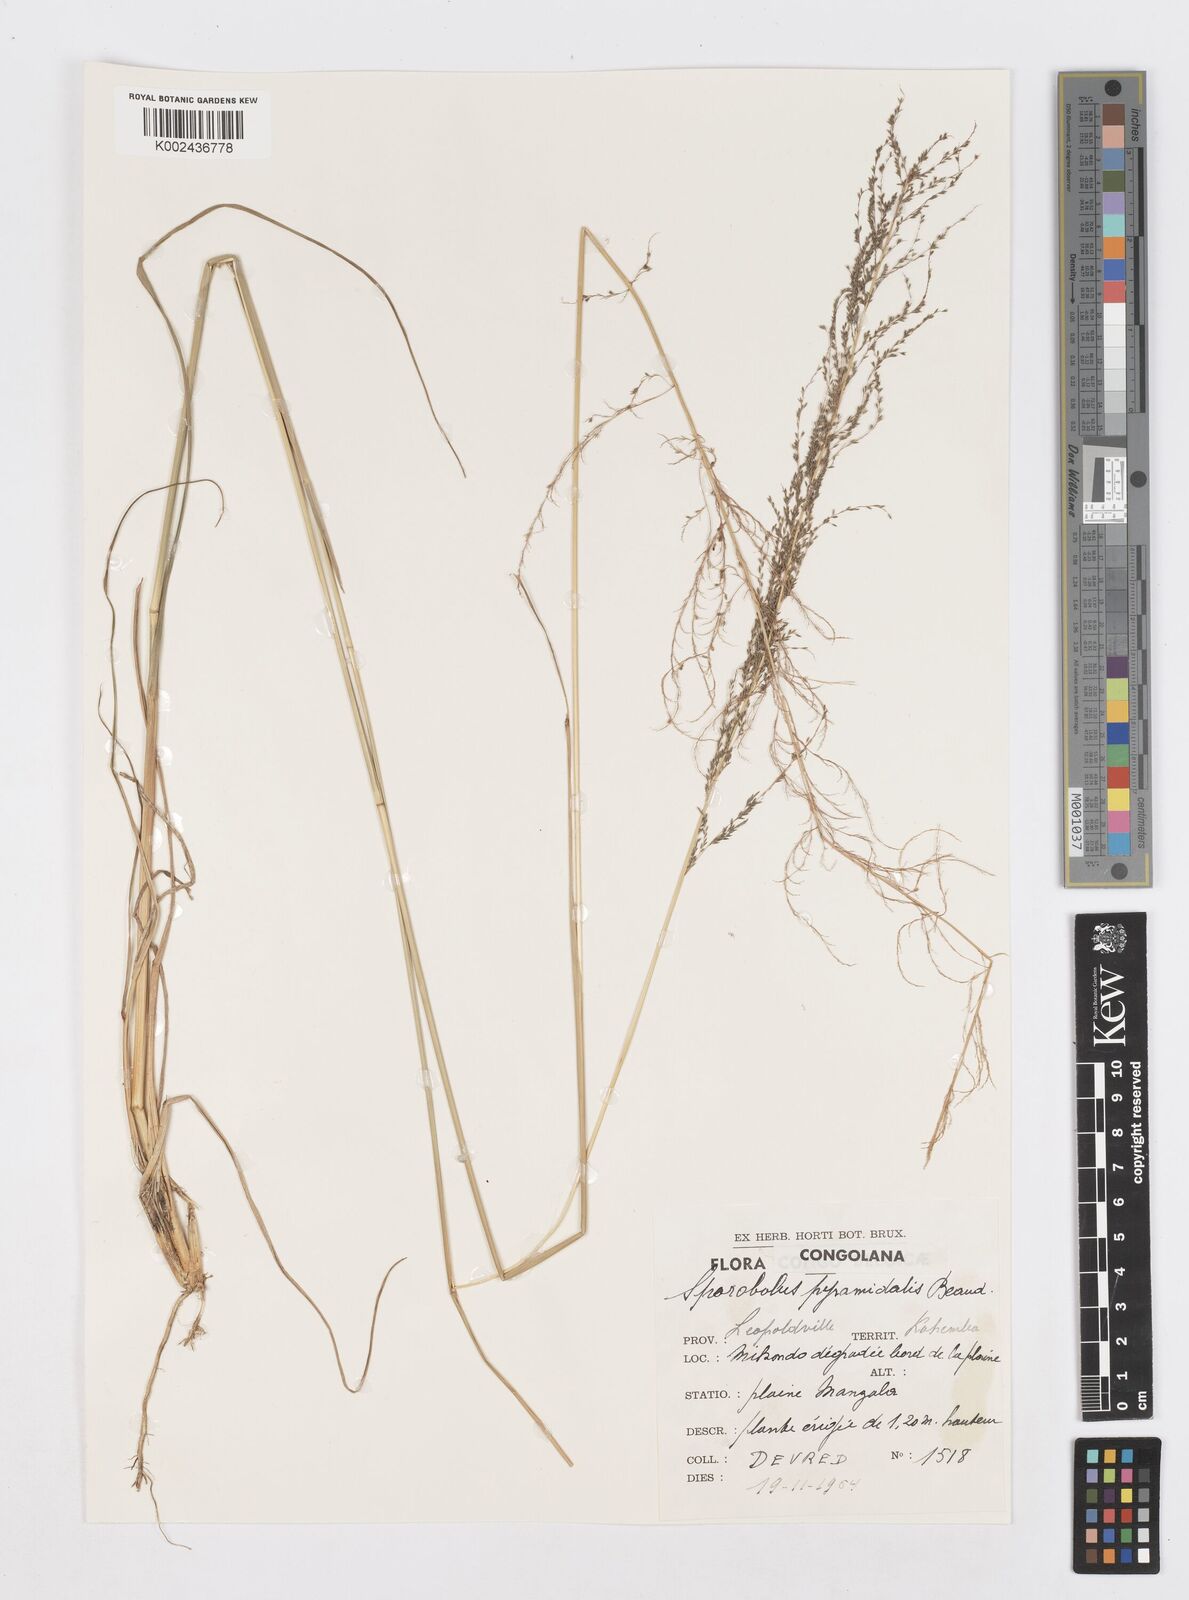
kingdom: Plantae
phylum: Tracheophyta
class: Liliopsida
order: Poales
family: Poaceae
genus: Sporobolus
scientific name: Sporobolus pyramidalis
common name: West indian dropseed
